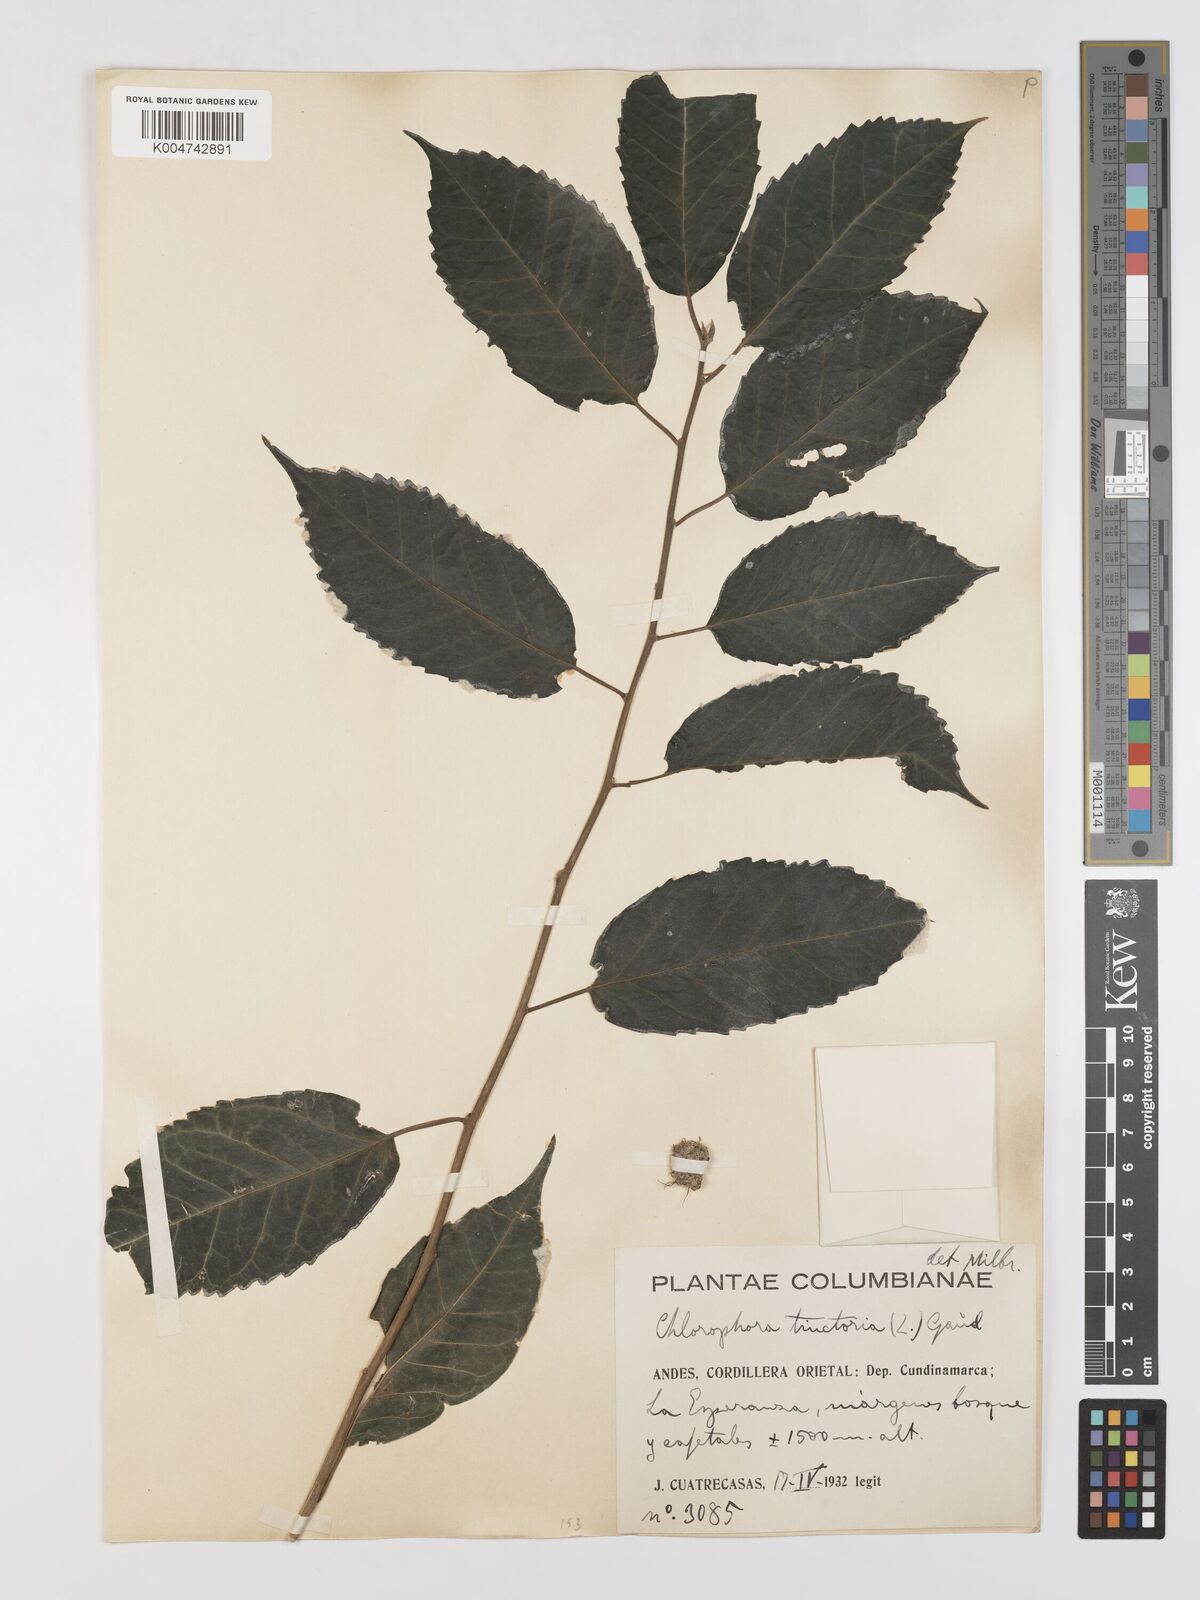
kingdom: Plantae
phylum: Tracheophyta
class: Magnoliopsida
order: Rosales
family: Moraceae
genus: Maclura
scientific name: Maclura tinctoria
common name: Old fustic
